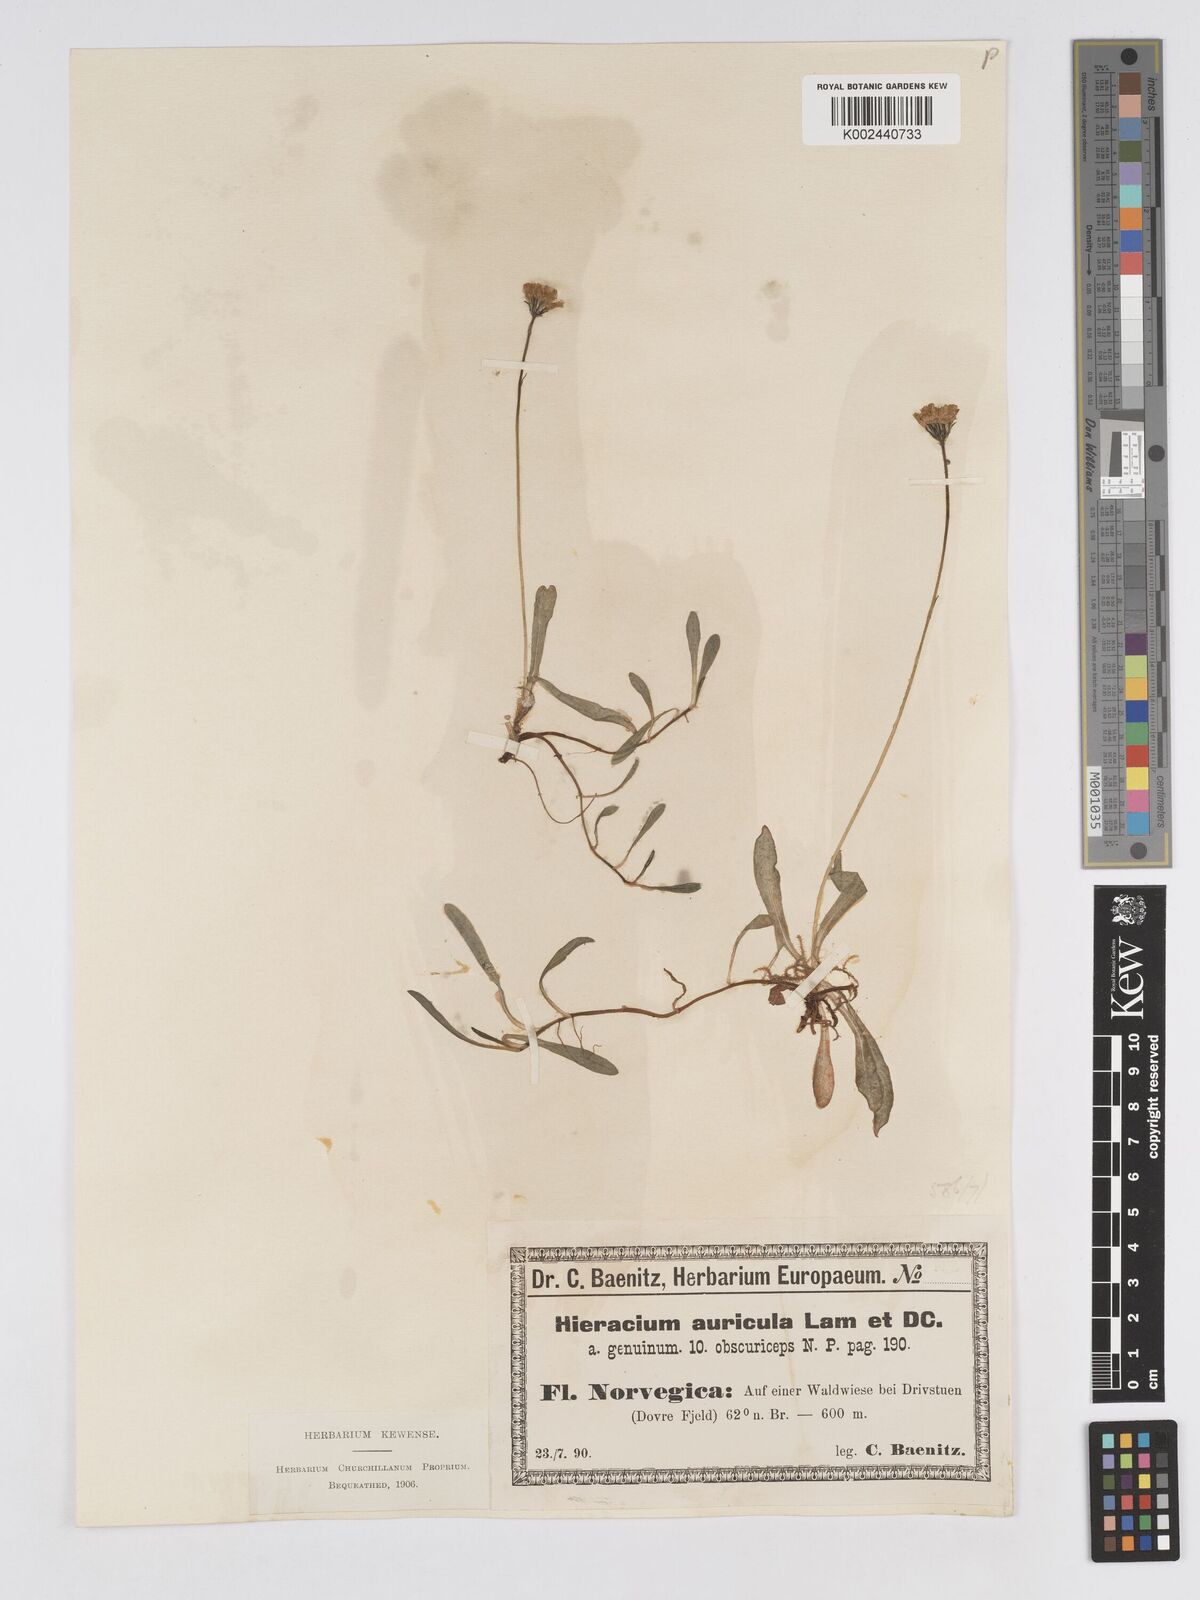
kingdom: Plantae
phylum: Tracheophyta
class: Magnoliopsida
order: Asterales
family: Asteraceae
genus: Pilosella
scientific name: Pilosella floribunda
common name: Glaucous hawkweed
